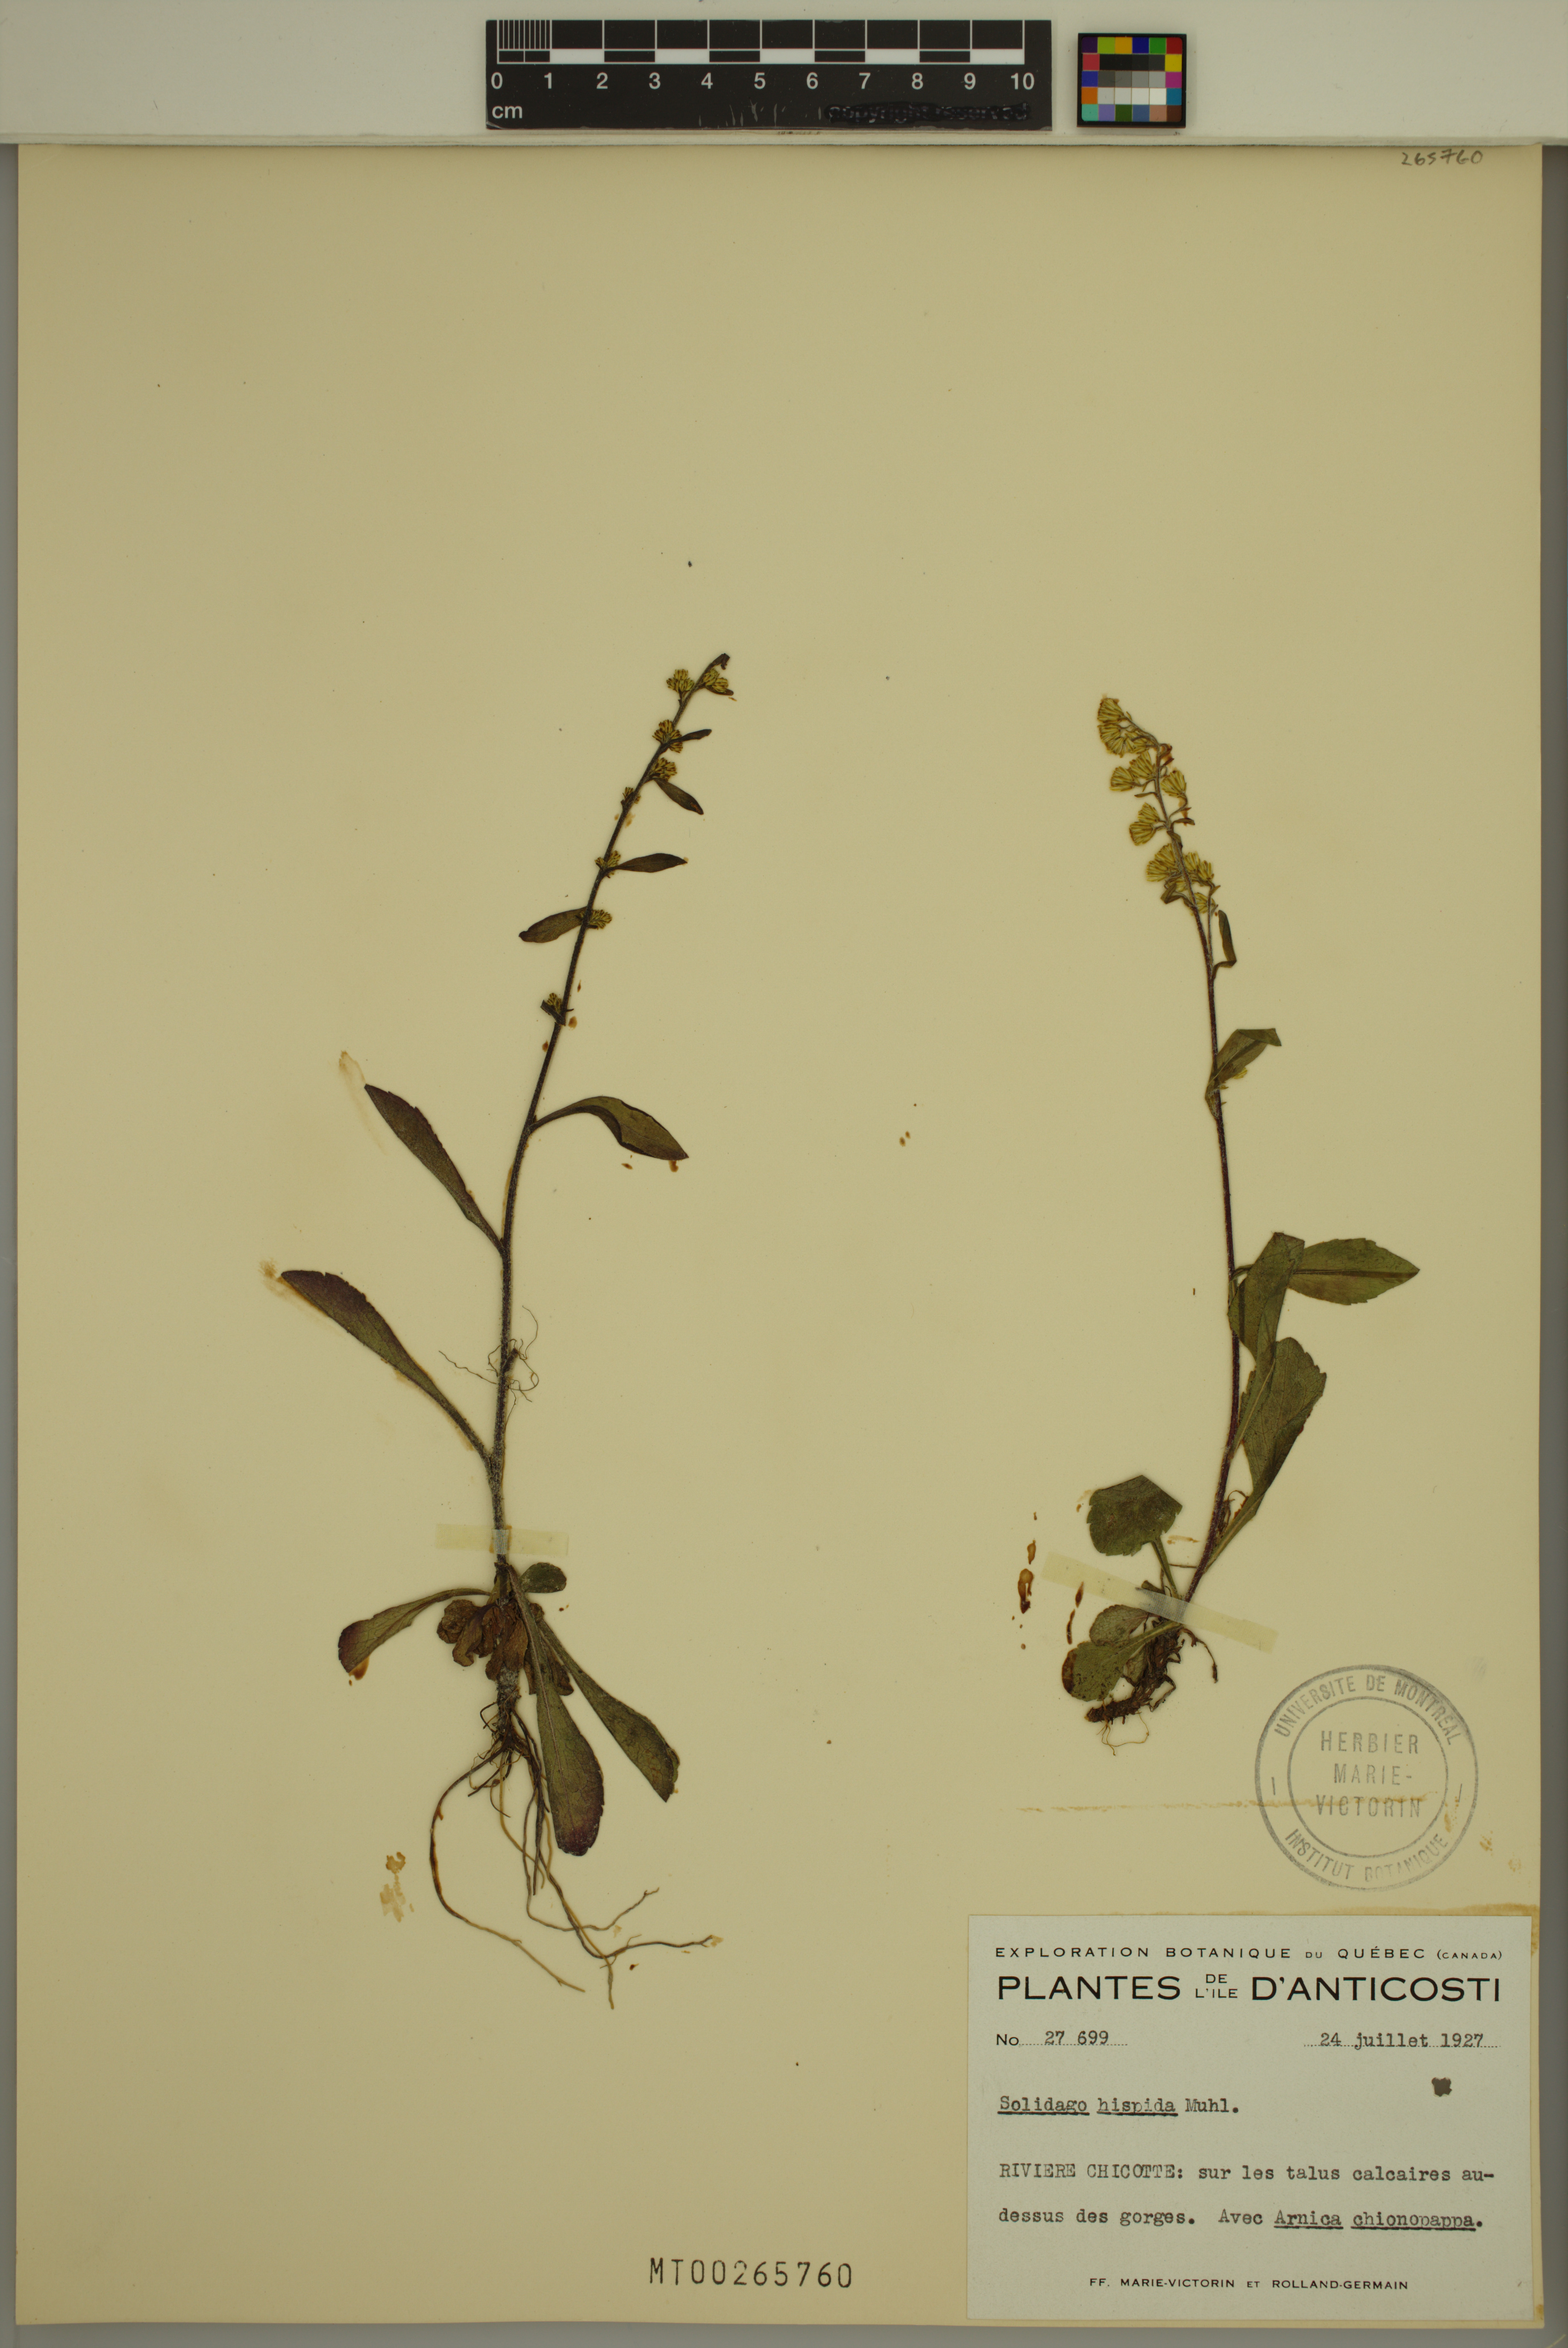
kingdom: Plantae
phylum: Tracheophyta
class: Magnoliopsida
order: Asterales
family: Asteraceae
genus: Solidago
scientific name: Solidago hispida
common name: Hairy goldenrod
